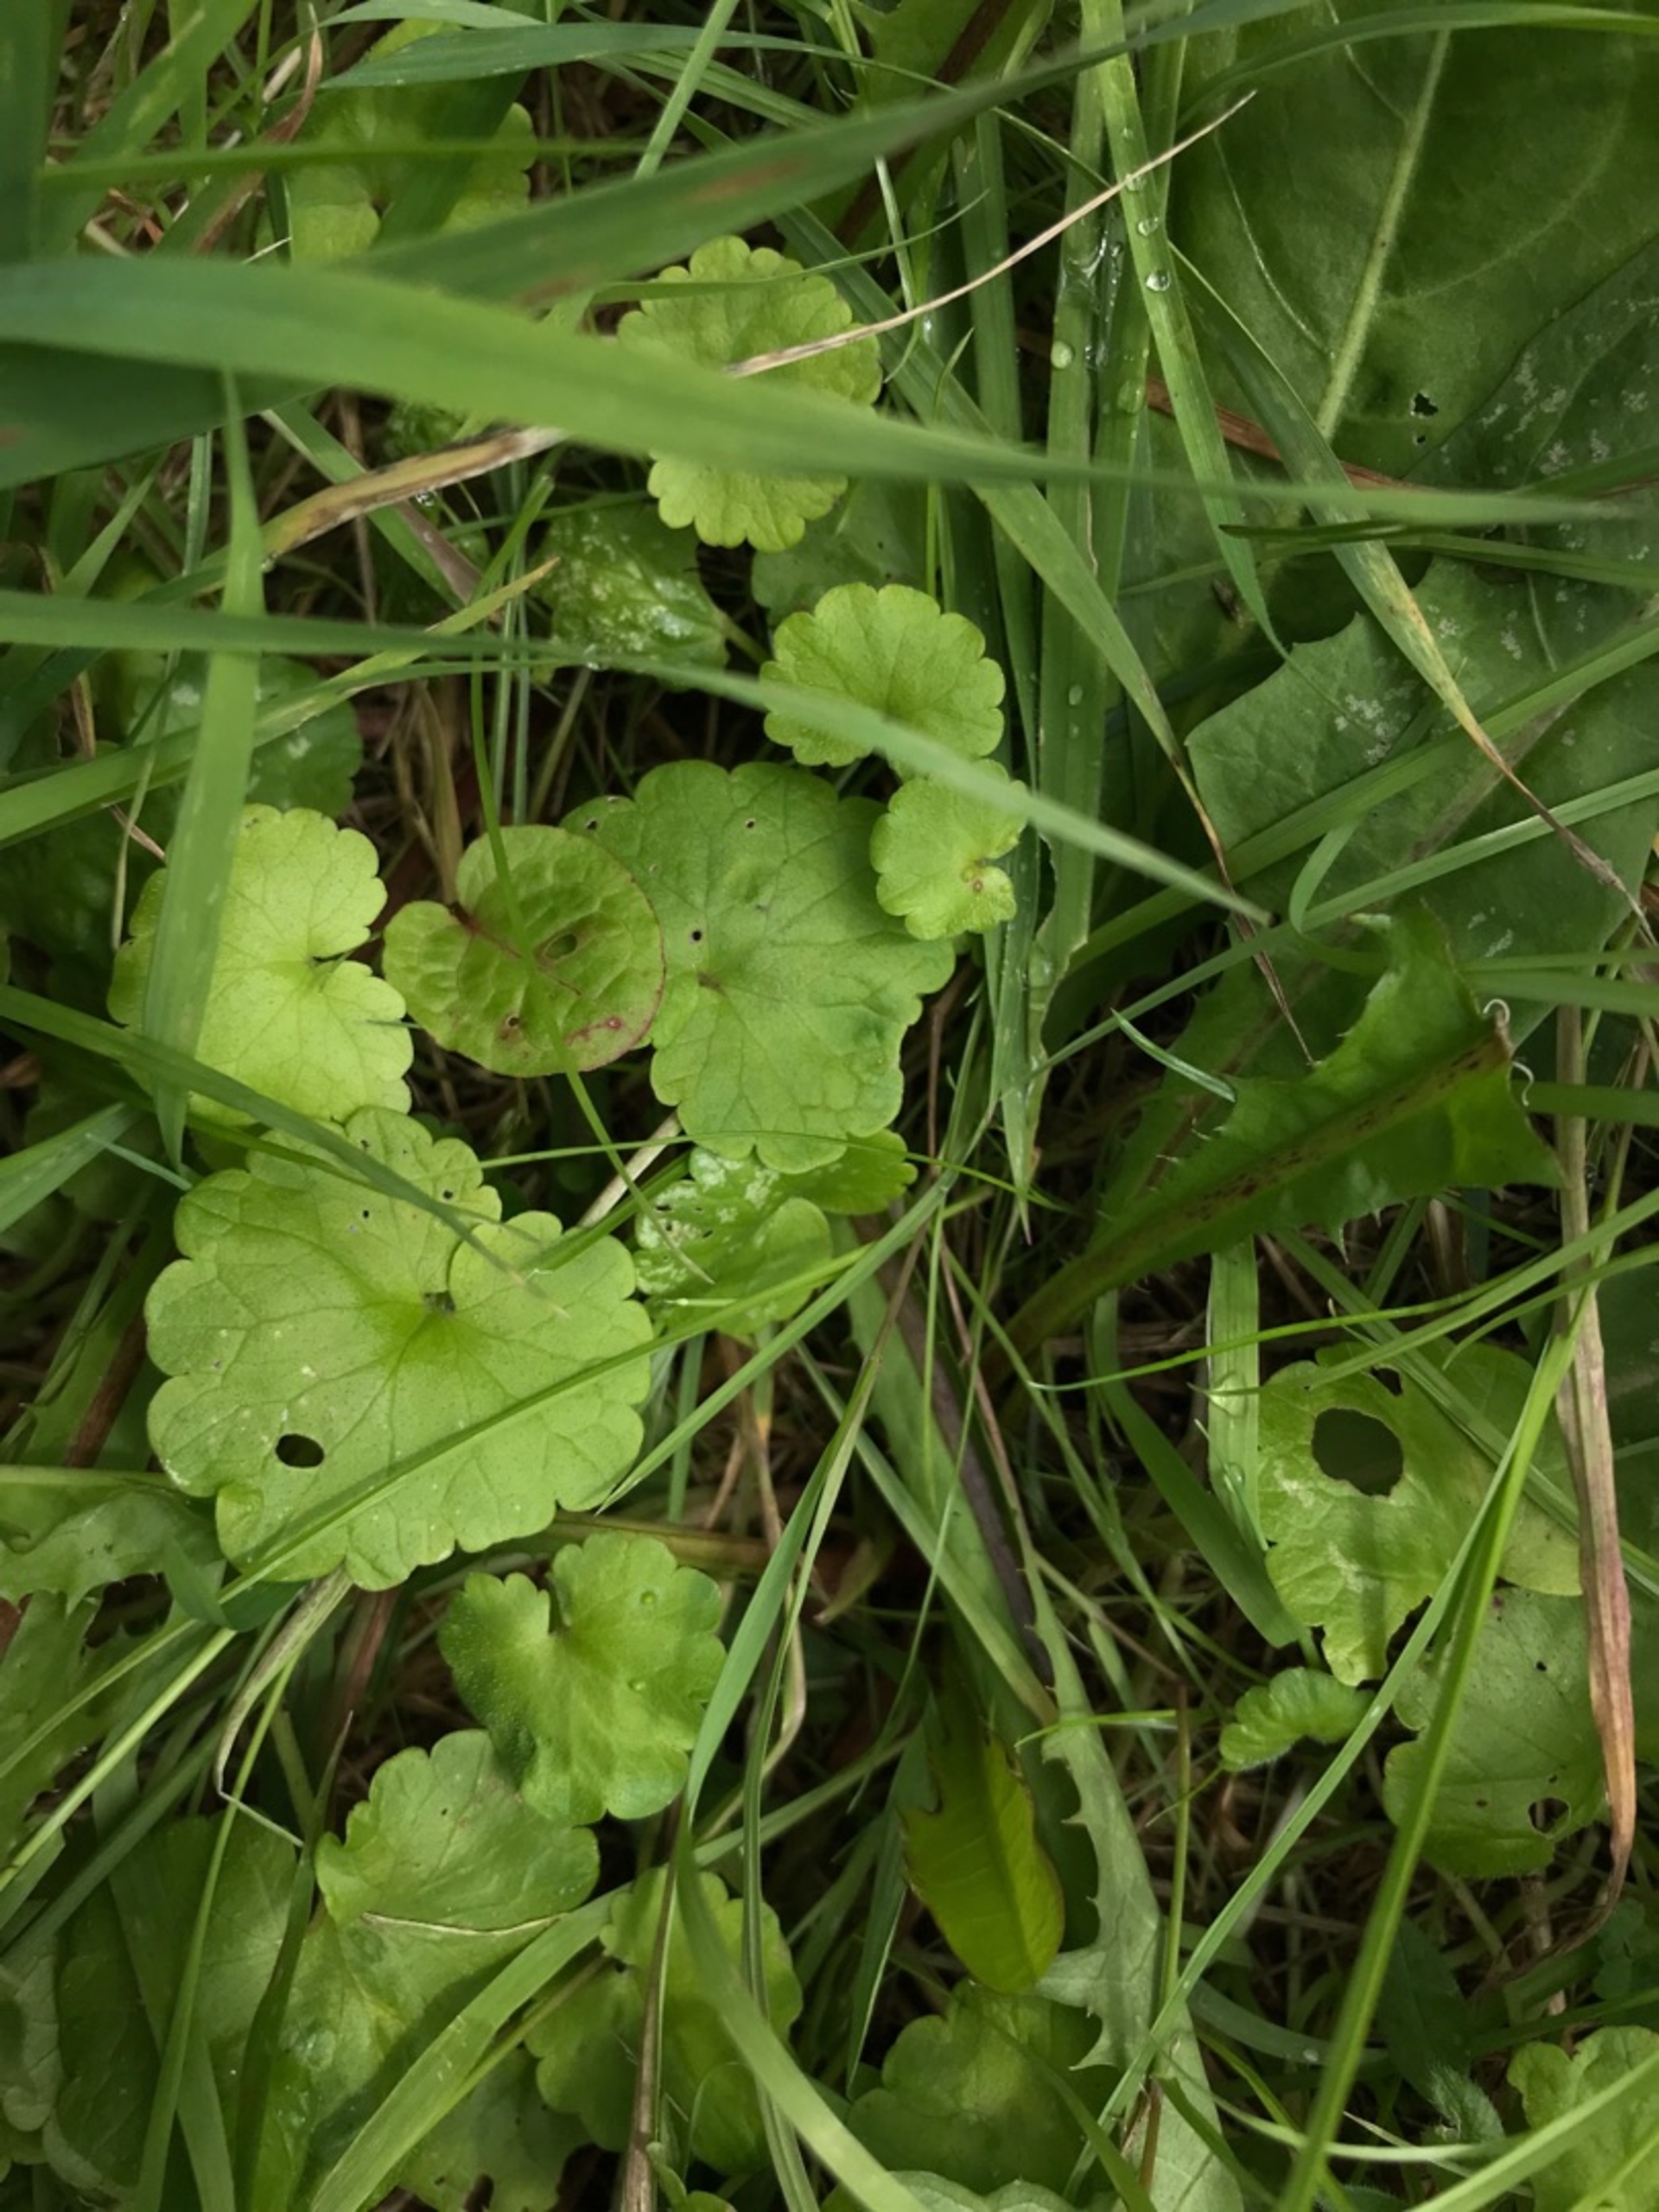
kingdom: Plantae
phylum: Tracheophyta
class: Magnoliopsida
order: Lamiales
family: Lamiaceae
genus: Glechoma
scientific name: Glechoma hederacea
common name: Korsknap
